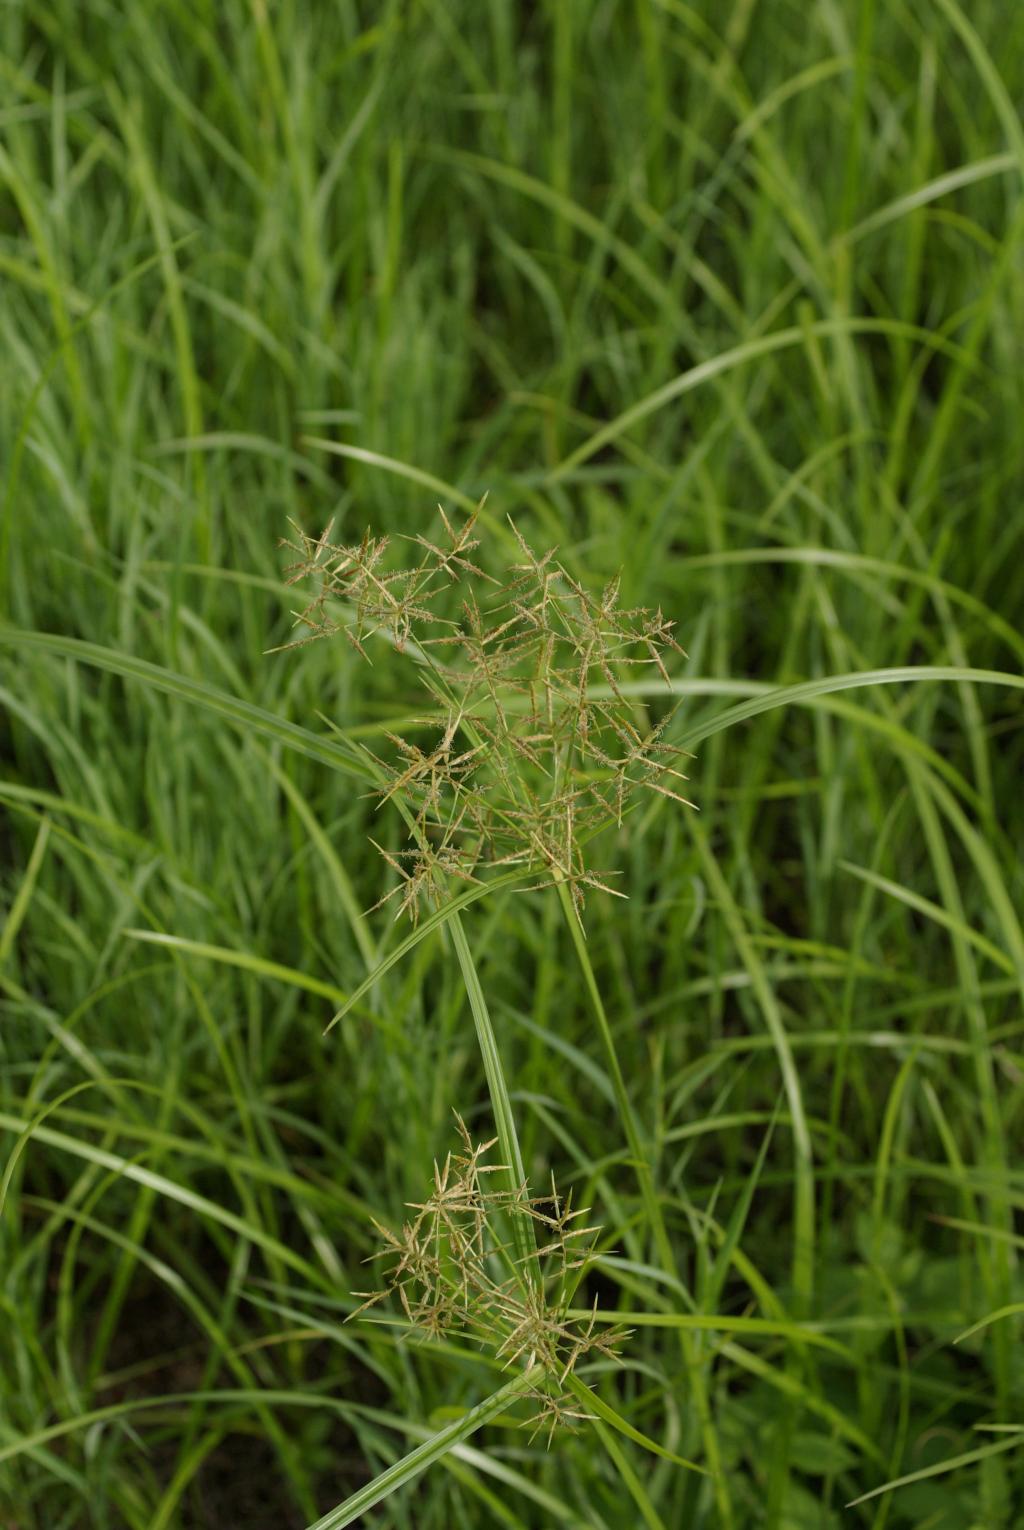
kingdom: Plantae
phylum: Tracheophyta
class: Liliopsida
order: Poales
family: Cyperaceae
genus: Cyperus
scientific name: Cyperus tuberosus
